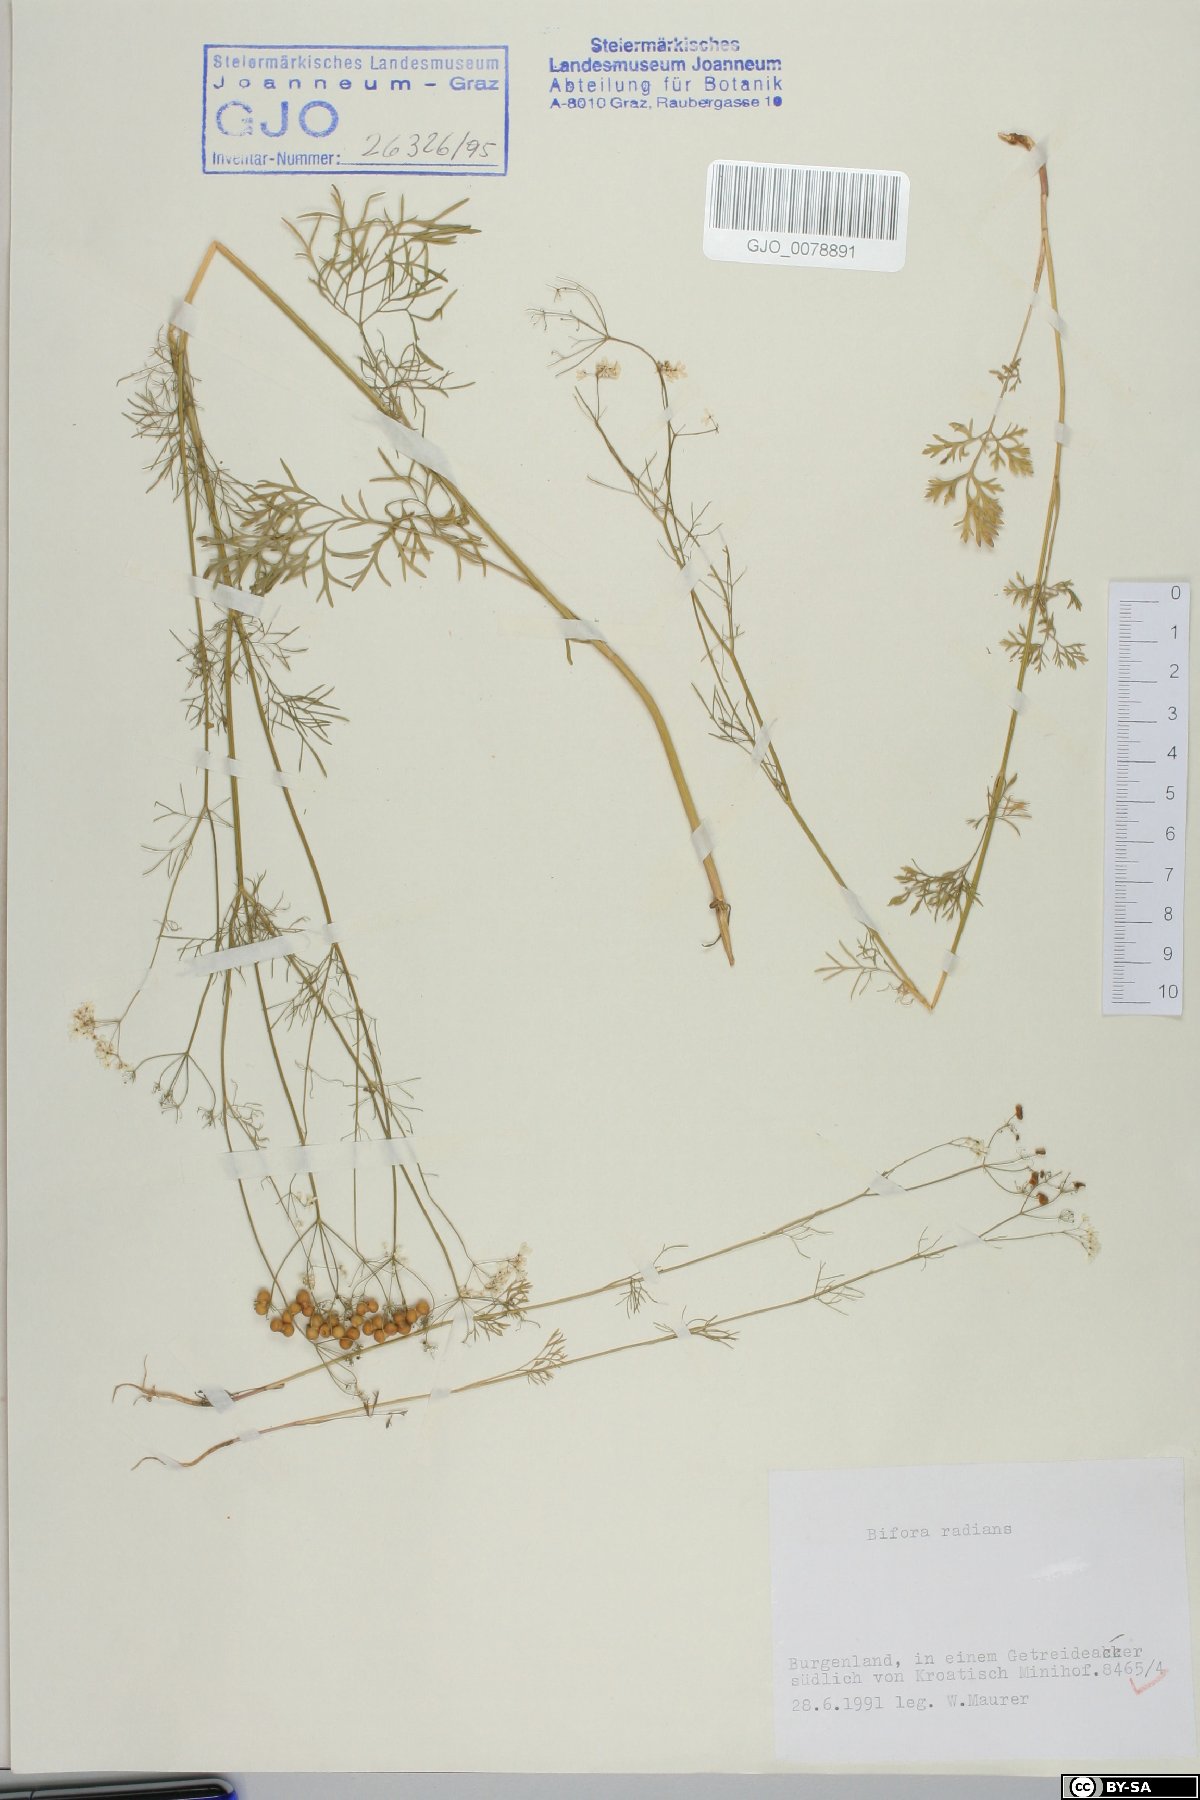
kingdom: Plantae
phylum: Tracheophyta
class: Magnoliopsida
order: Apiales
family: Apiaceae
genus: Bifora
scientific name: Bifora radians
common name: Wild bishop
